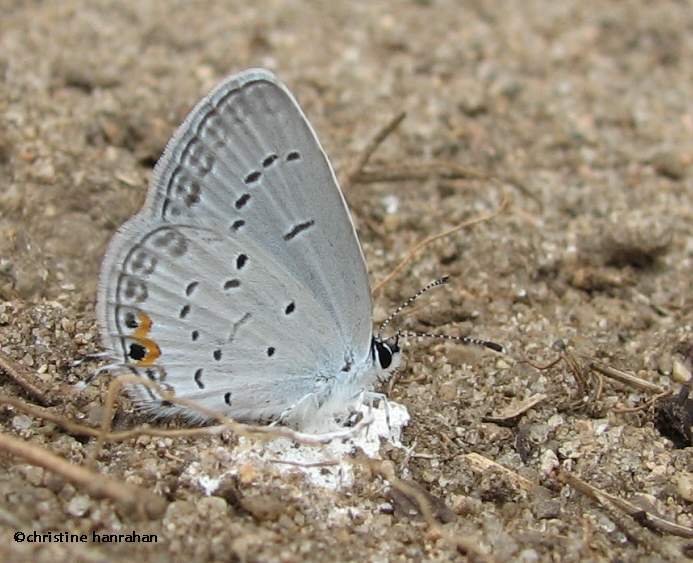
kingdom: Animalia
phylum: Arthropoda
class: Insecta
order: Lepidoptera
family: Lycaenidae
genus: Elkalyce
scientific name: Elkalyce comyntas
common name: Eastern Tailed-Blue
